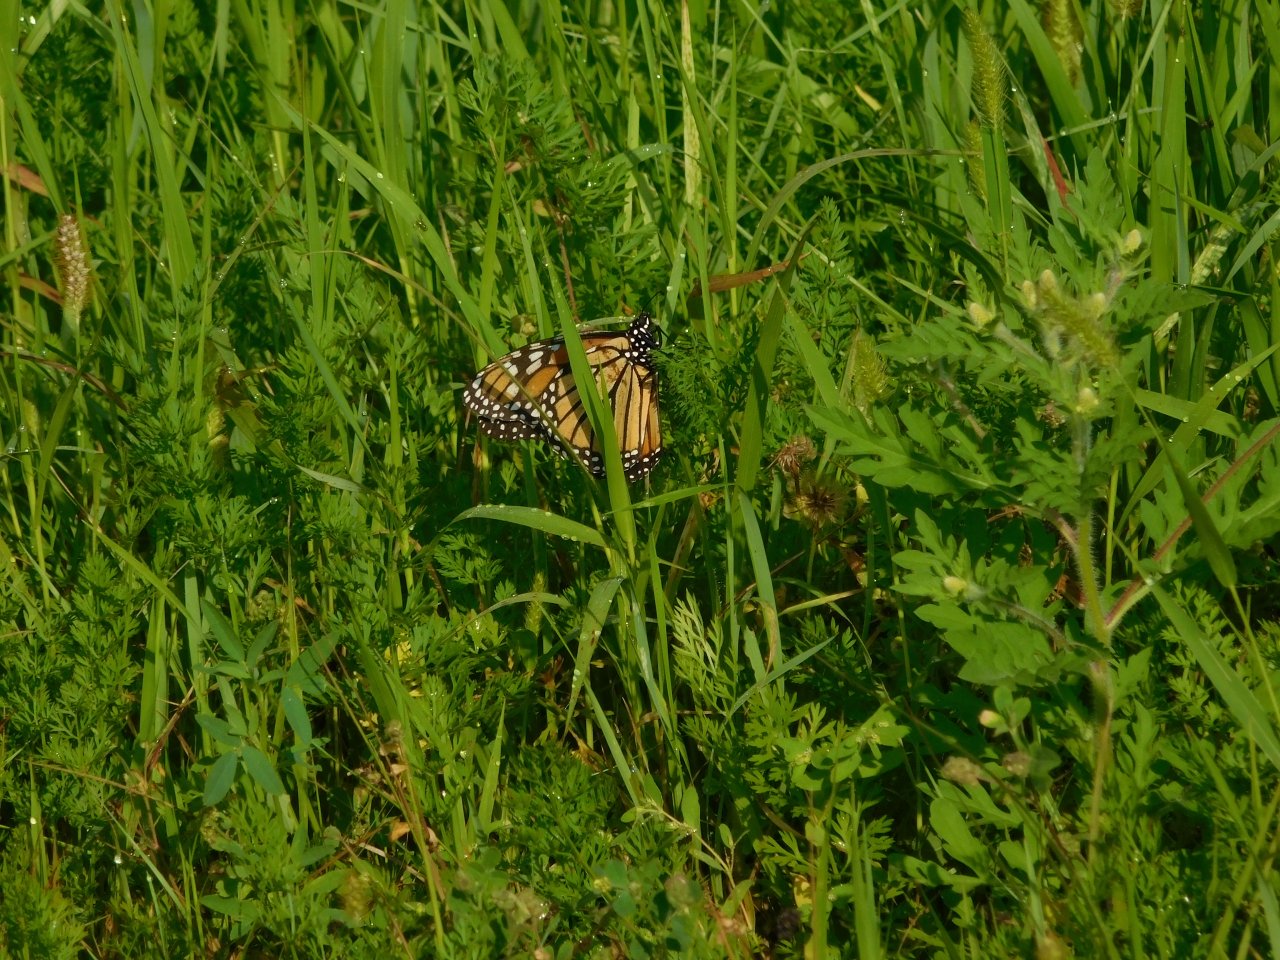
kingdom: Animalia
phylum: Arthropoda
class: Insecta
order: Lepidoptera
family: Nymphalidae
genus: Danaus
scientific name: Danaus plexippus
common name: Monarch
